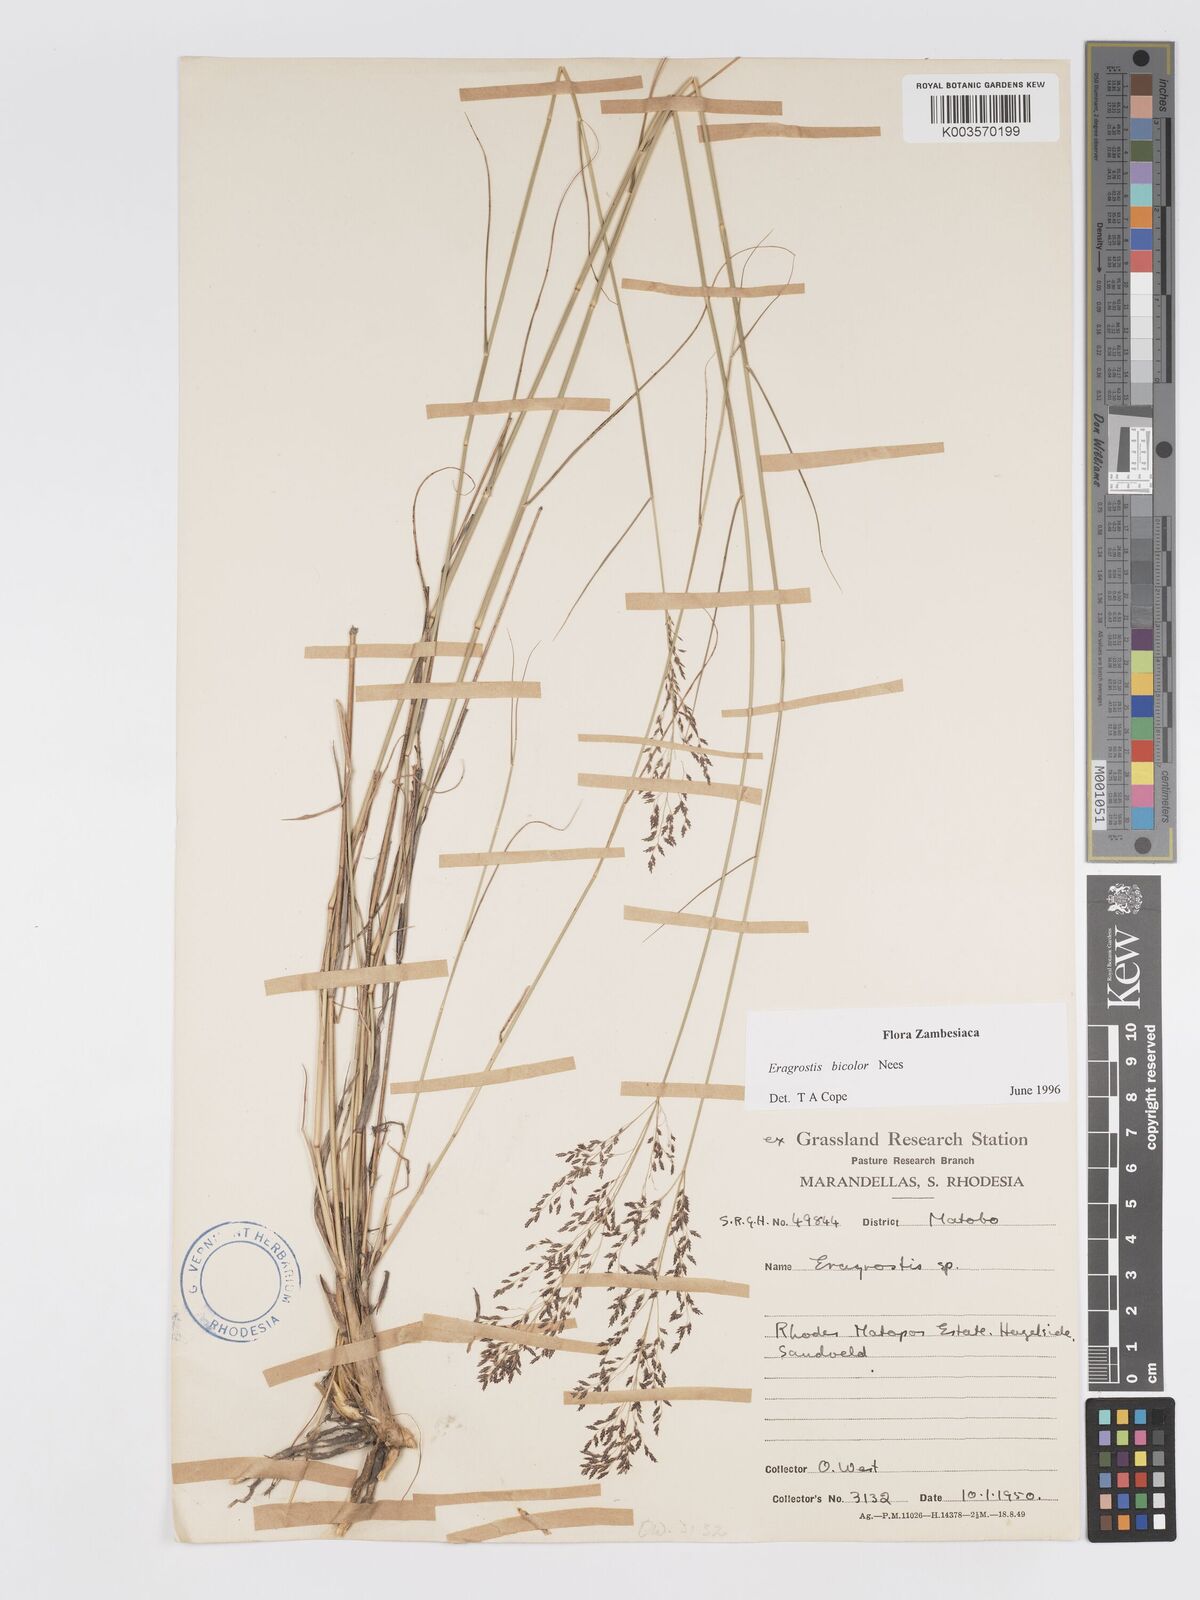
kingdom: Plantae
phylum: Tracheophyta
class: Liliopsida
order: Poales
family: Poaceae
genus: Eragrostis
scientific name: Eragrostis bicolor
